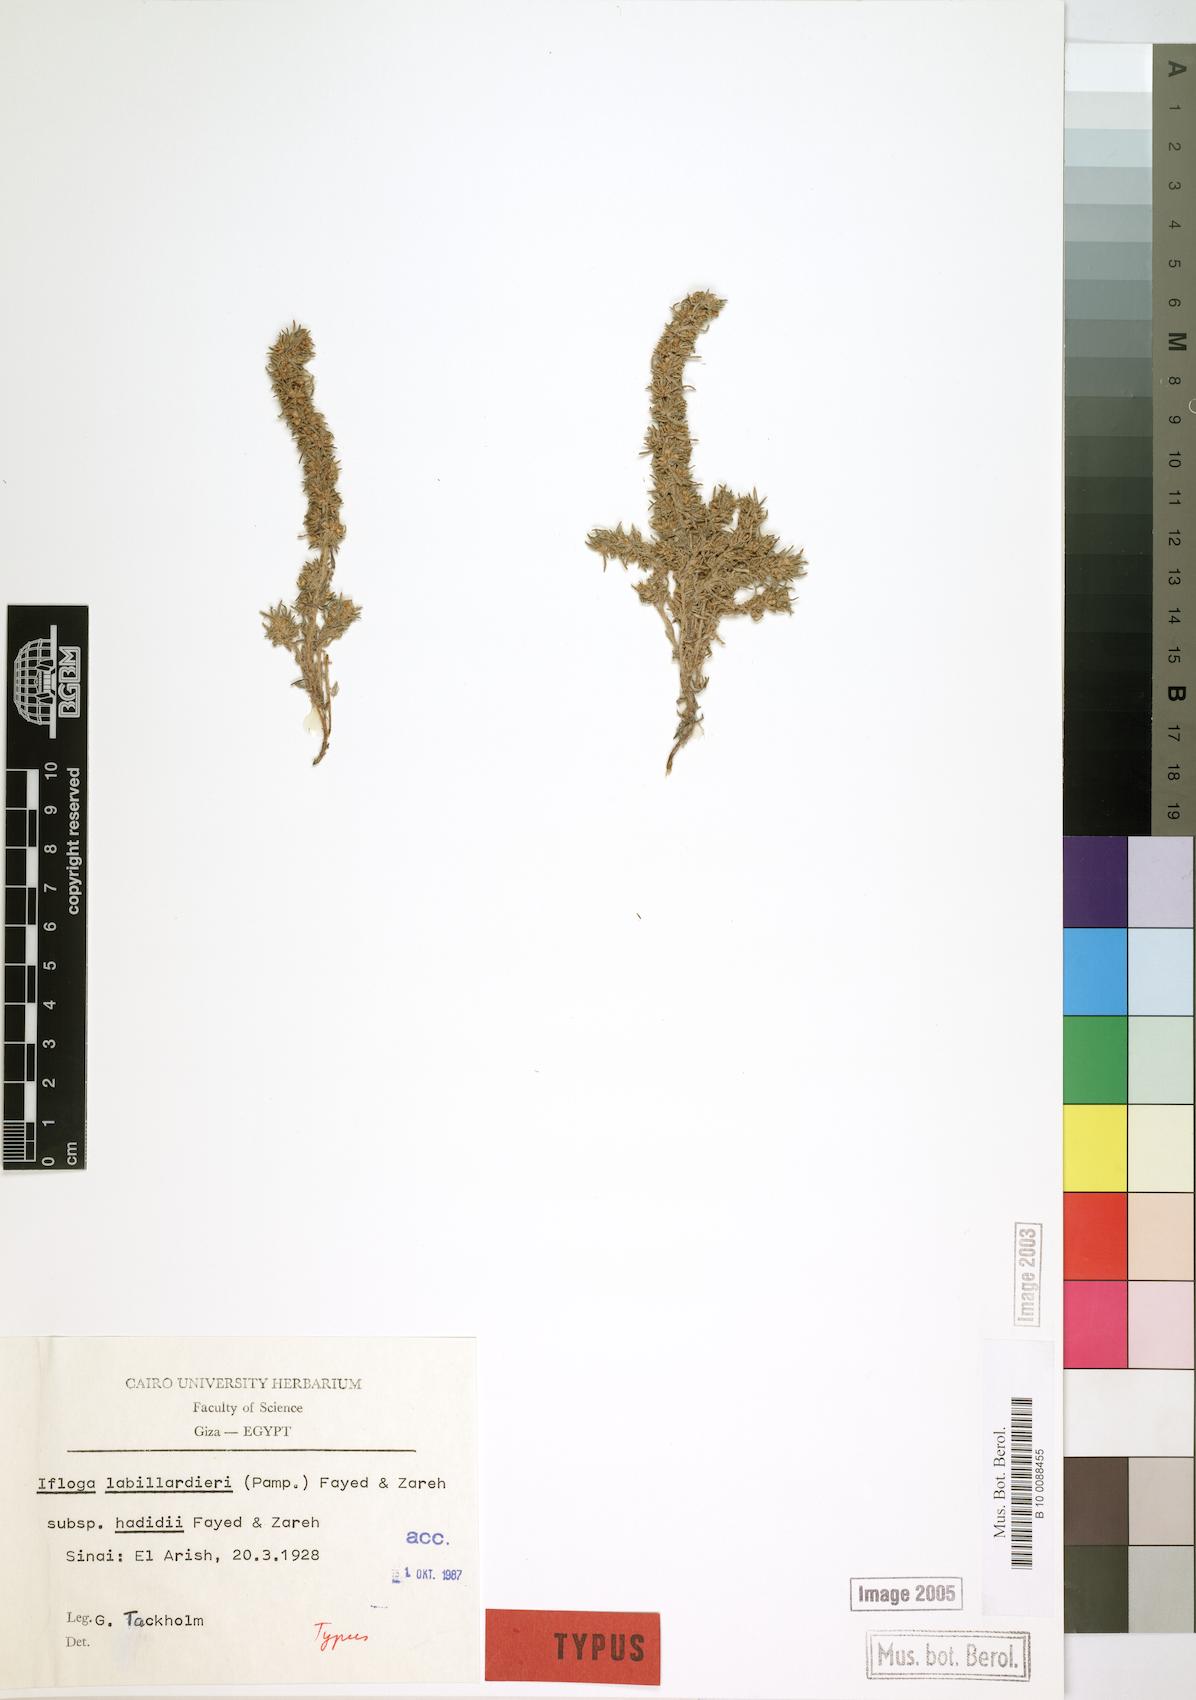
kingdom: Plantae
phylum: Tracheophyta
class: Magnoliopsida
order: Asterales
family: Asteraceae
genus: Ifloga
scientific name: Ifloga spicata
